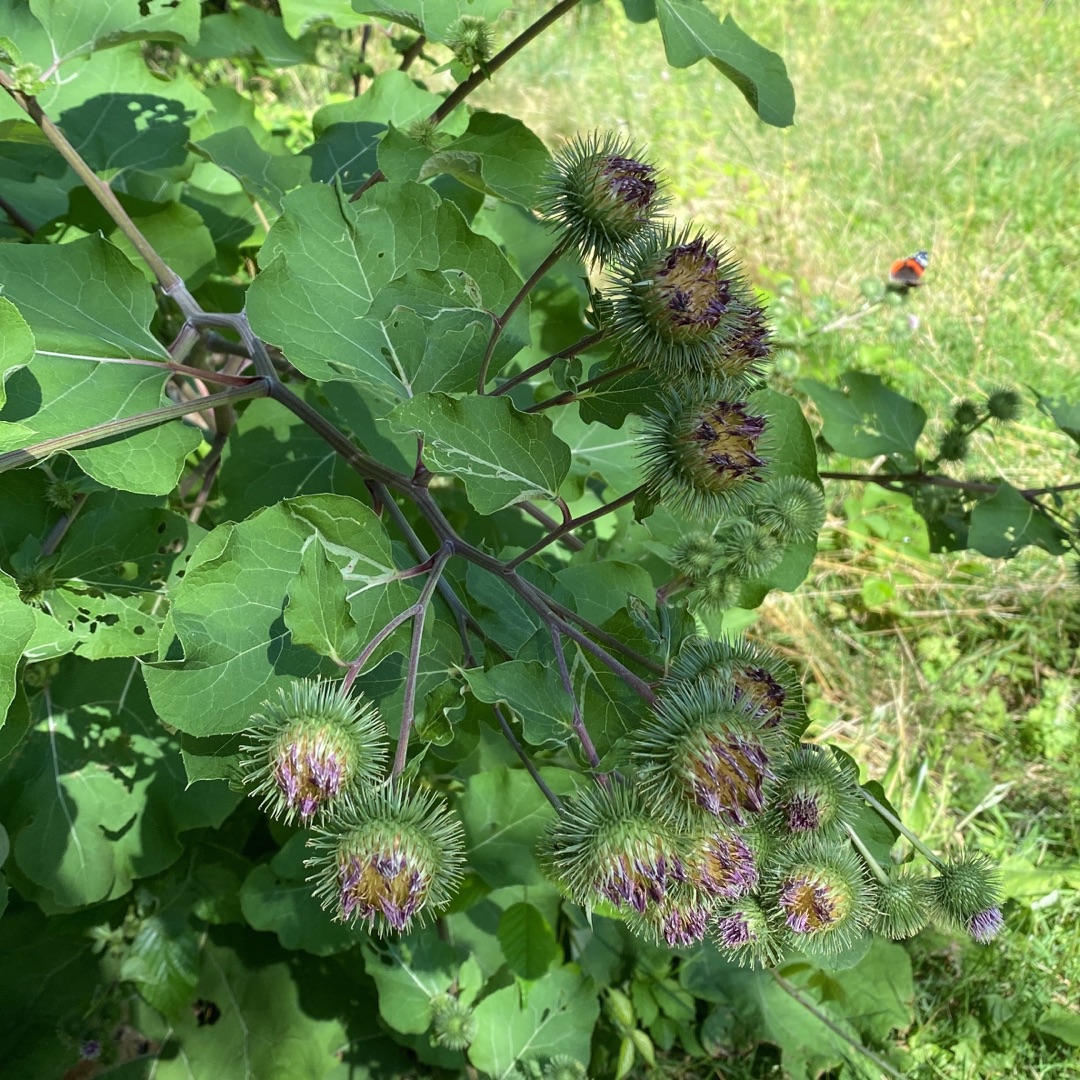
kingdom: Plantae
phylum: Tracheophyta
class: Magnoliopsida
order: Asterales
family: Asteraceae
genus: Arctium
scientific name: Arctium lappa
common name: Glat burre
